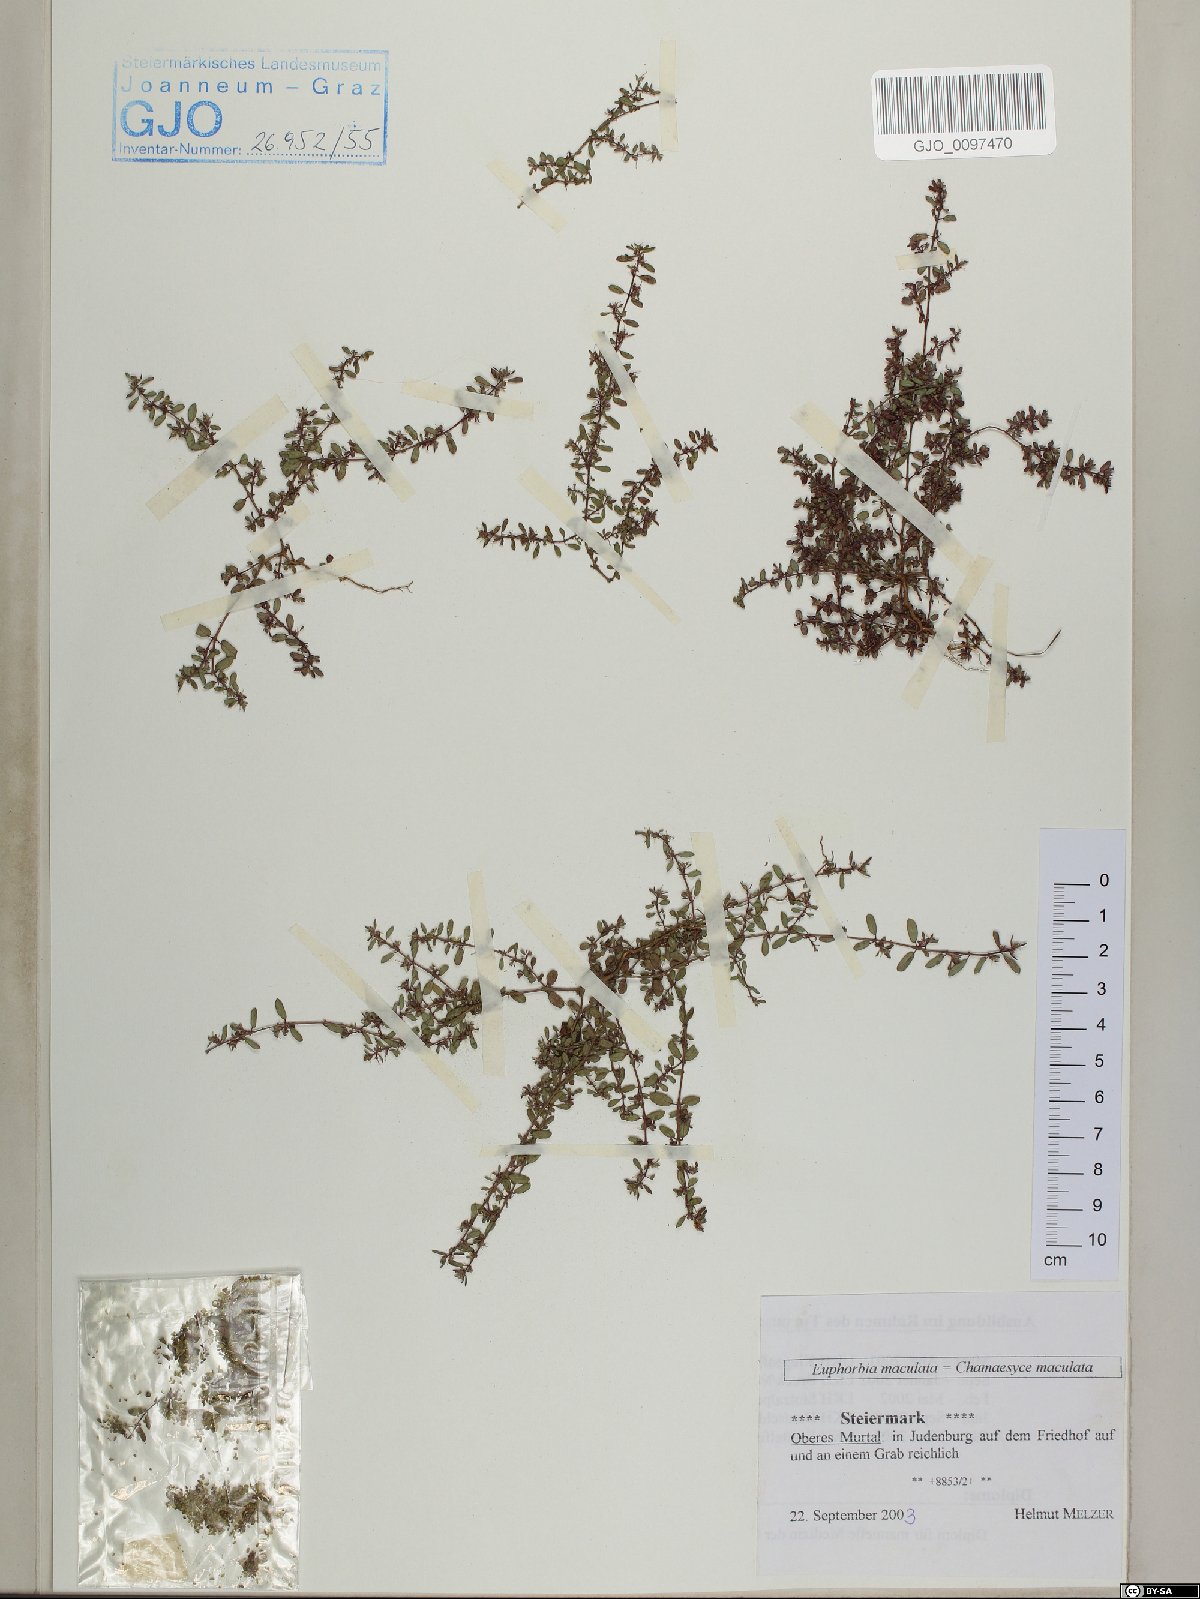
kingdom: Plantae
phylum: Tracheophyta
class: Magnoliopsida
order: Malpighiales
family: Euphorbiaceae
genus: Euphorbia
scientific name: Euphorbia maculata
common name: Spotted spurge
